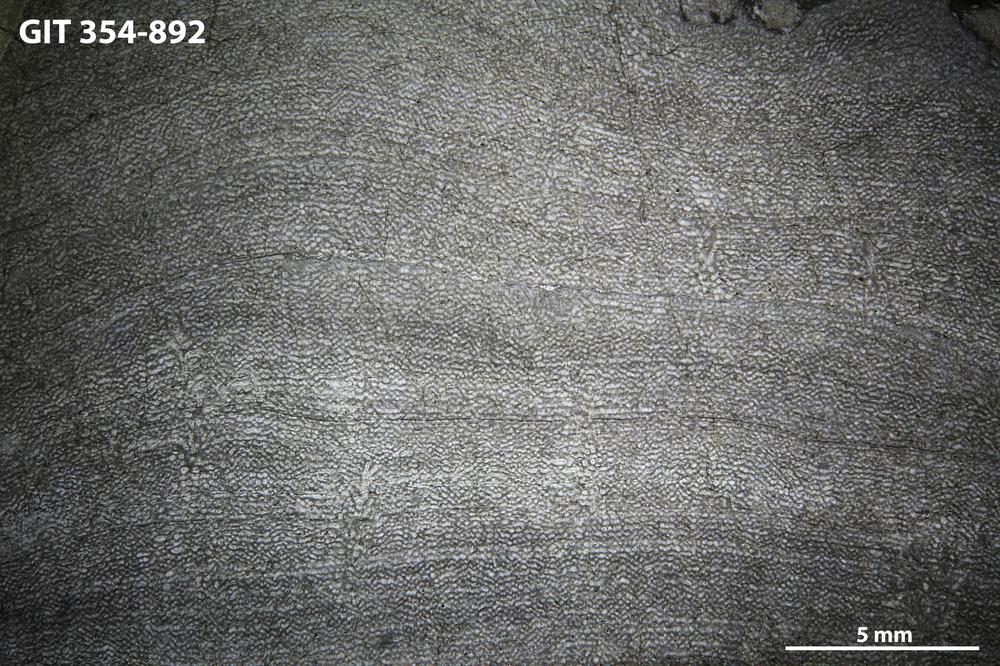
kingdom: Animalia
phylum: Porifera
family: Ecclimadictyidae
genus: Ecclimadictyon
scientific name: Ecclimadictyon macrotuberculatum
